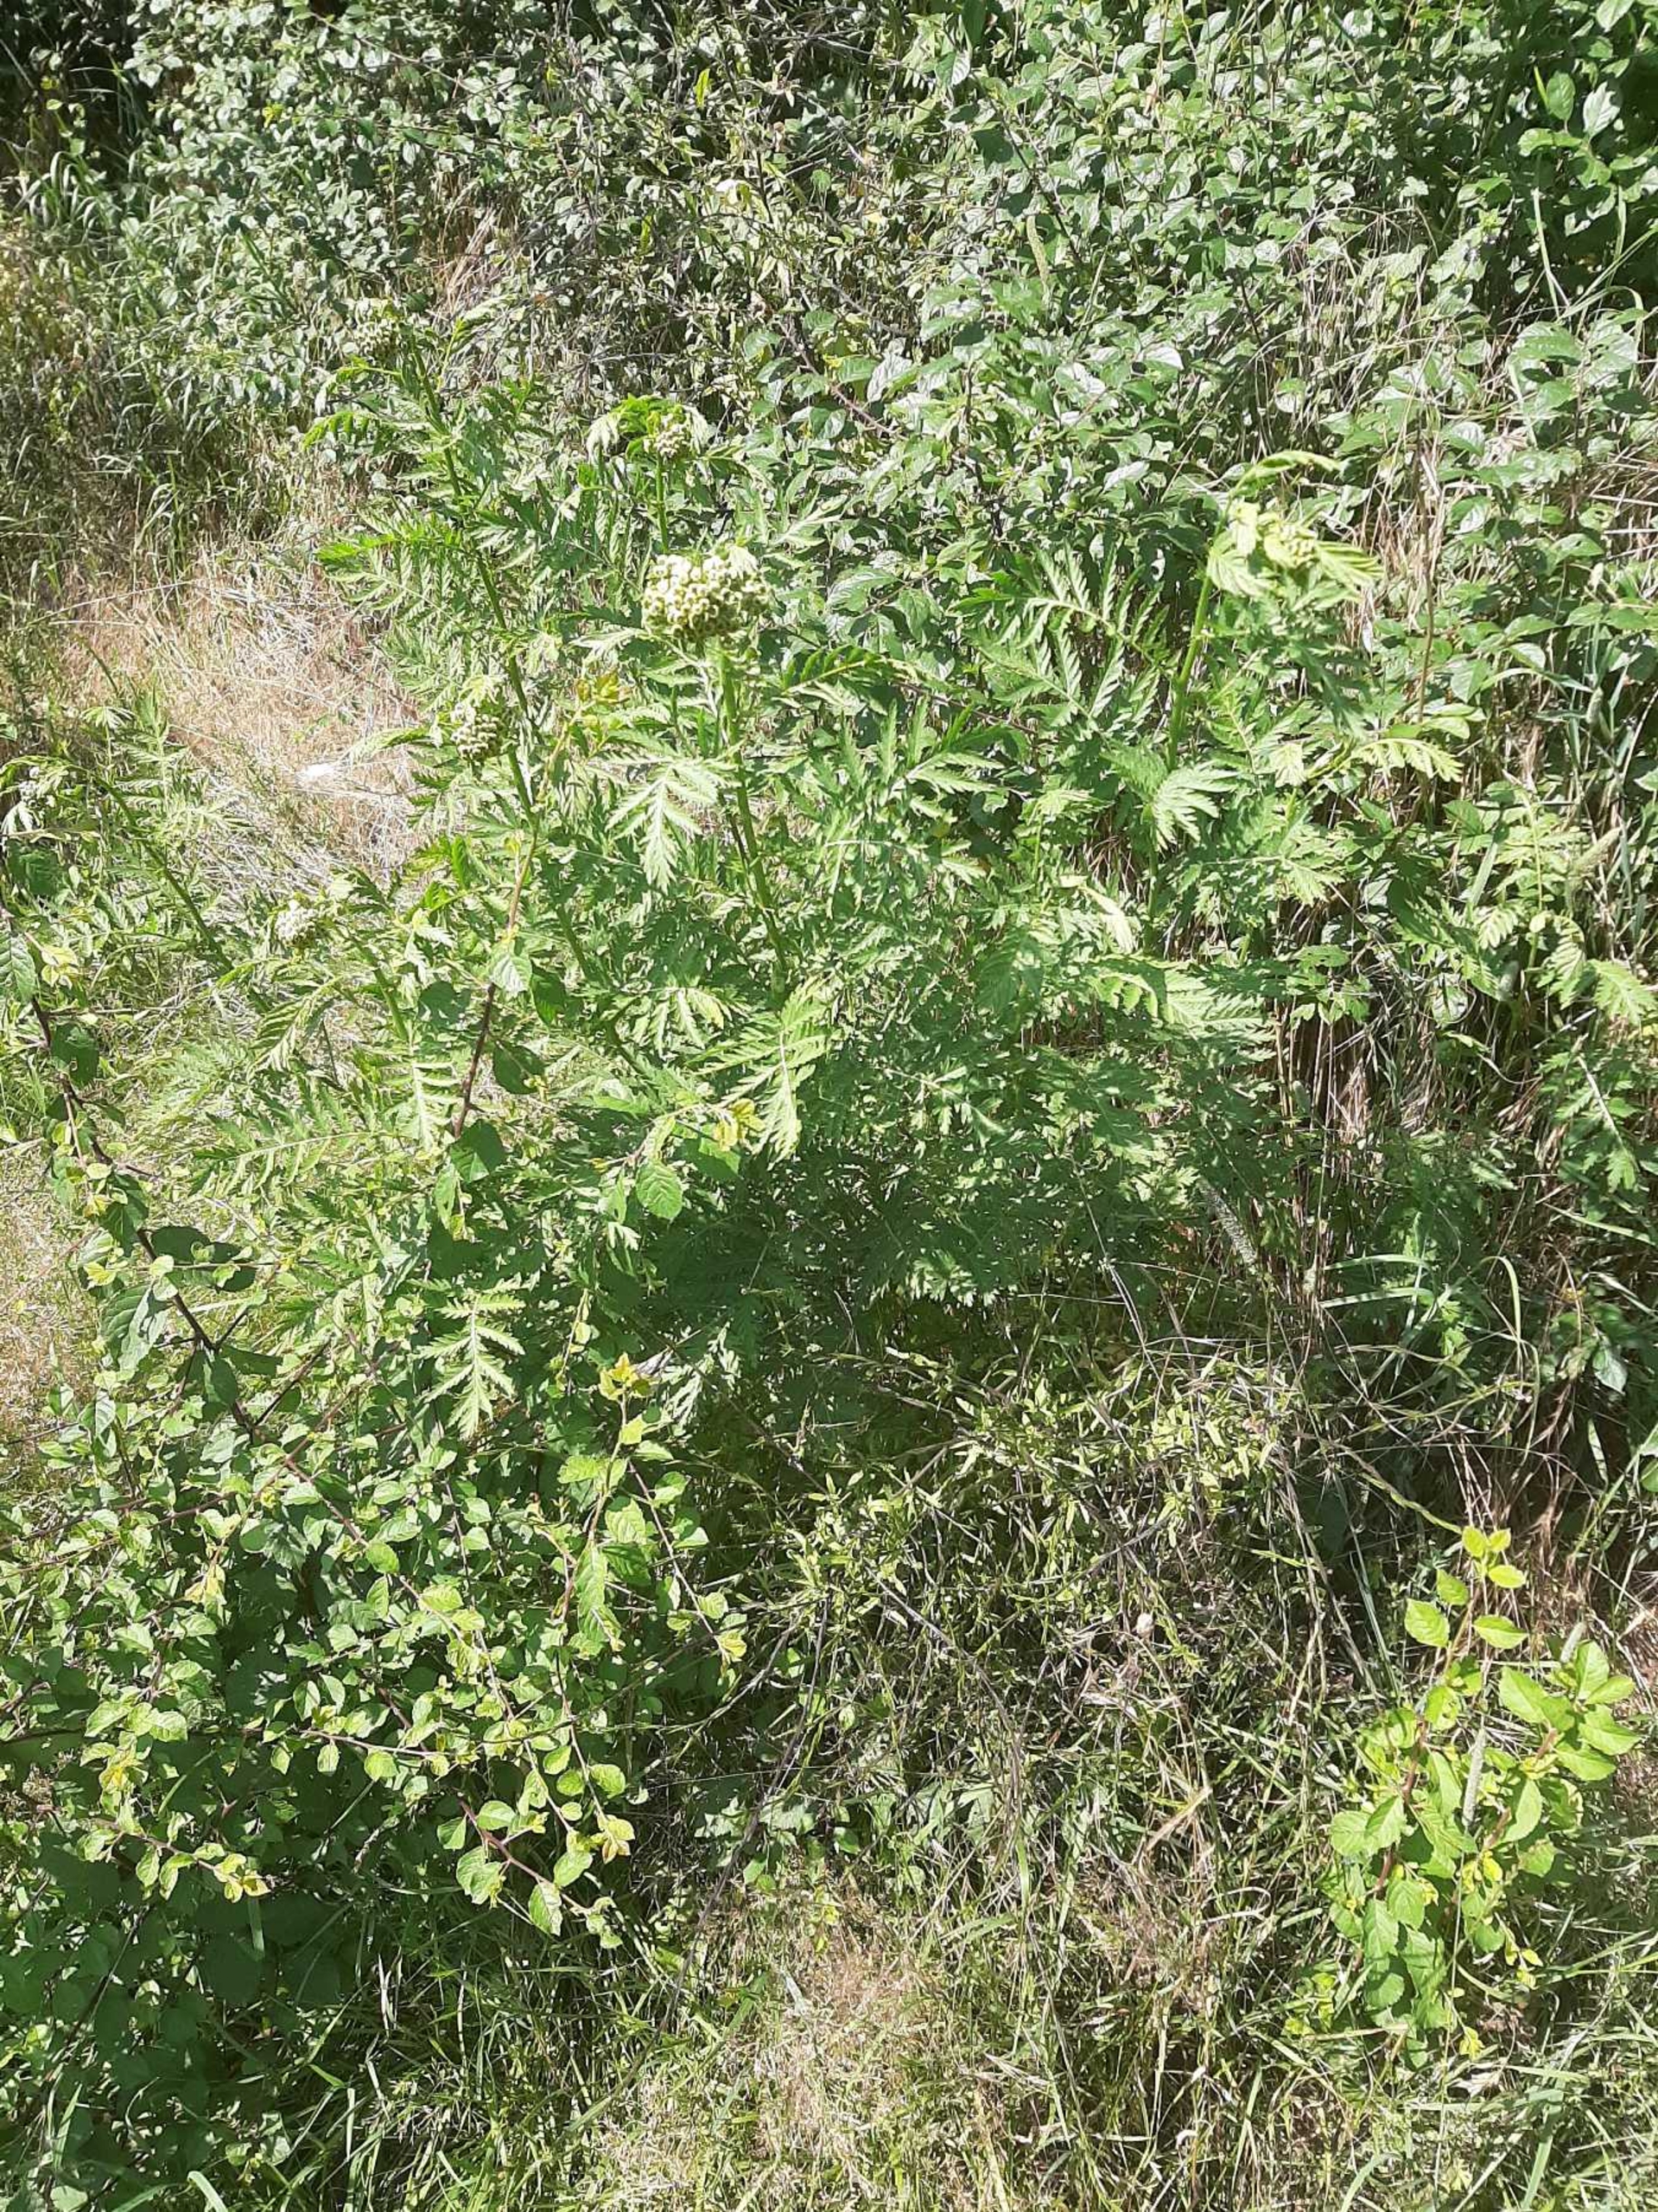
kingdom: Plantae
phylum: Tracheophyta
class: Magnoliopsida
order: Asterales
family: Asteraceae
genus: Tanacetum
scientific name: Tanacetum vulgare
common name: Rejnfan
